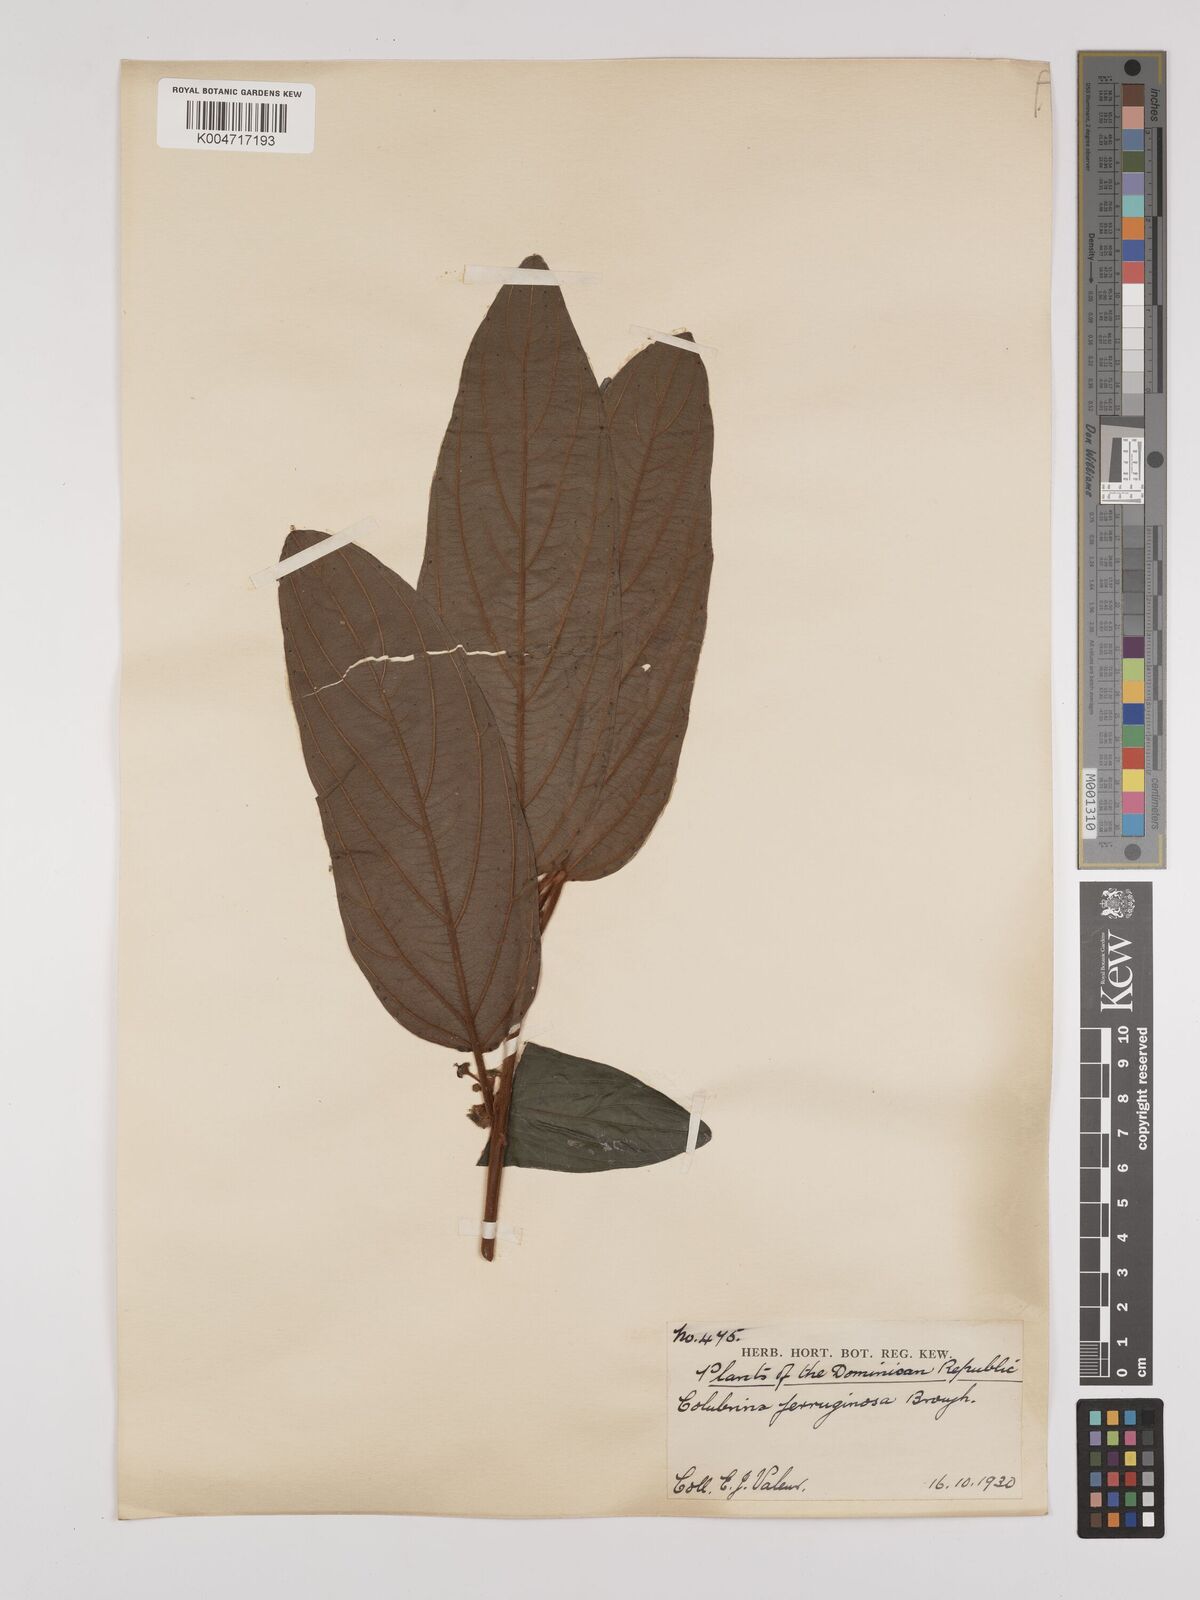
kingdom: Plantae
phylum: Tracheophyta
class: Magnoliopsida
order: Rosales
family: Rhamnaceae
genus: Colubrina
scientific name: Colubrina arborescens
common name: Wild coffee
